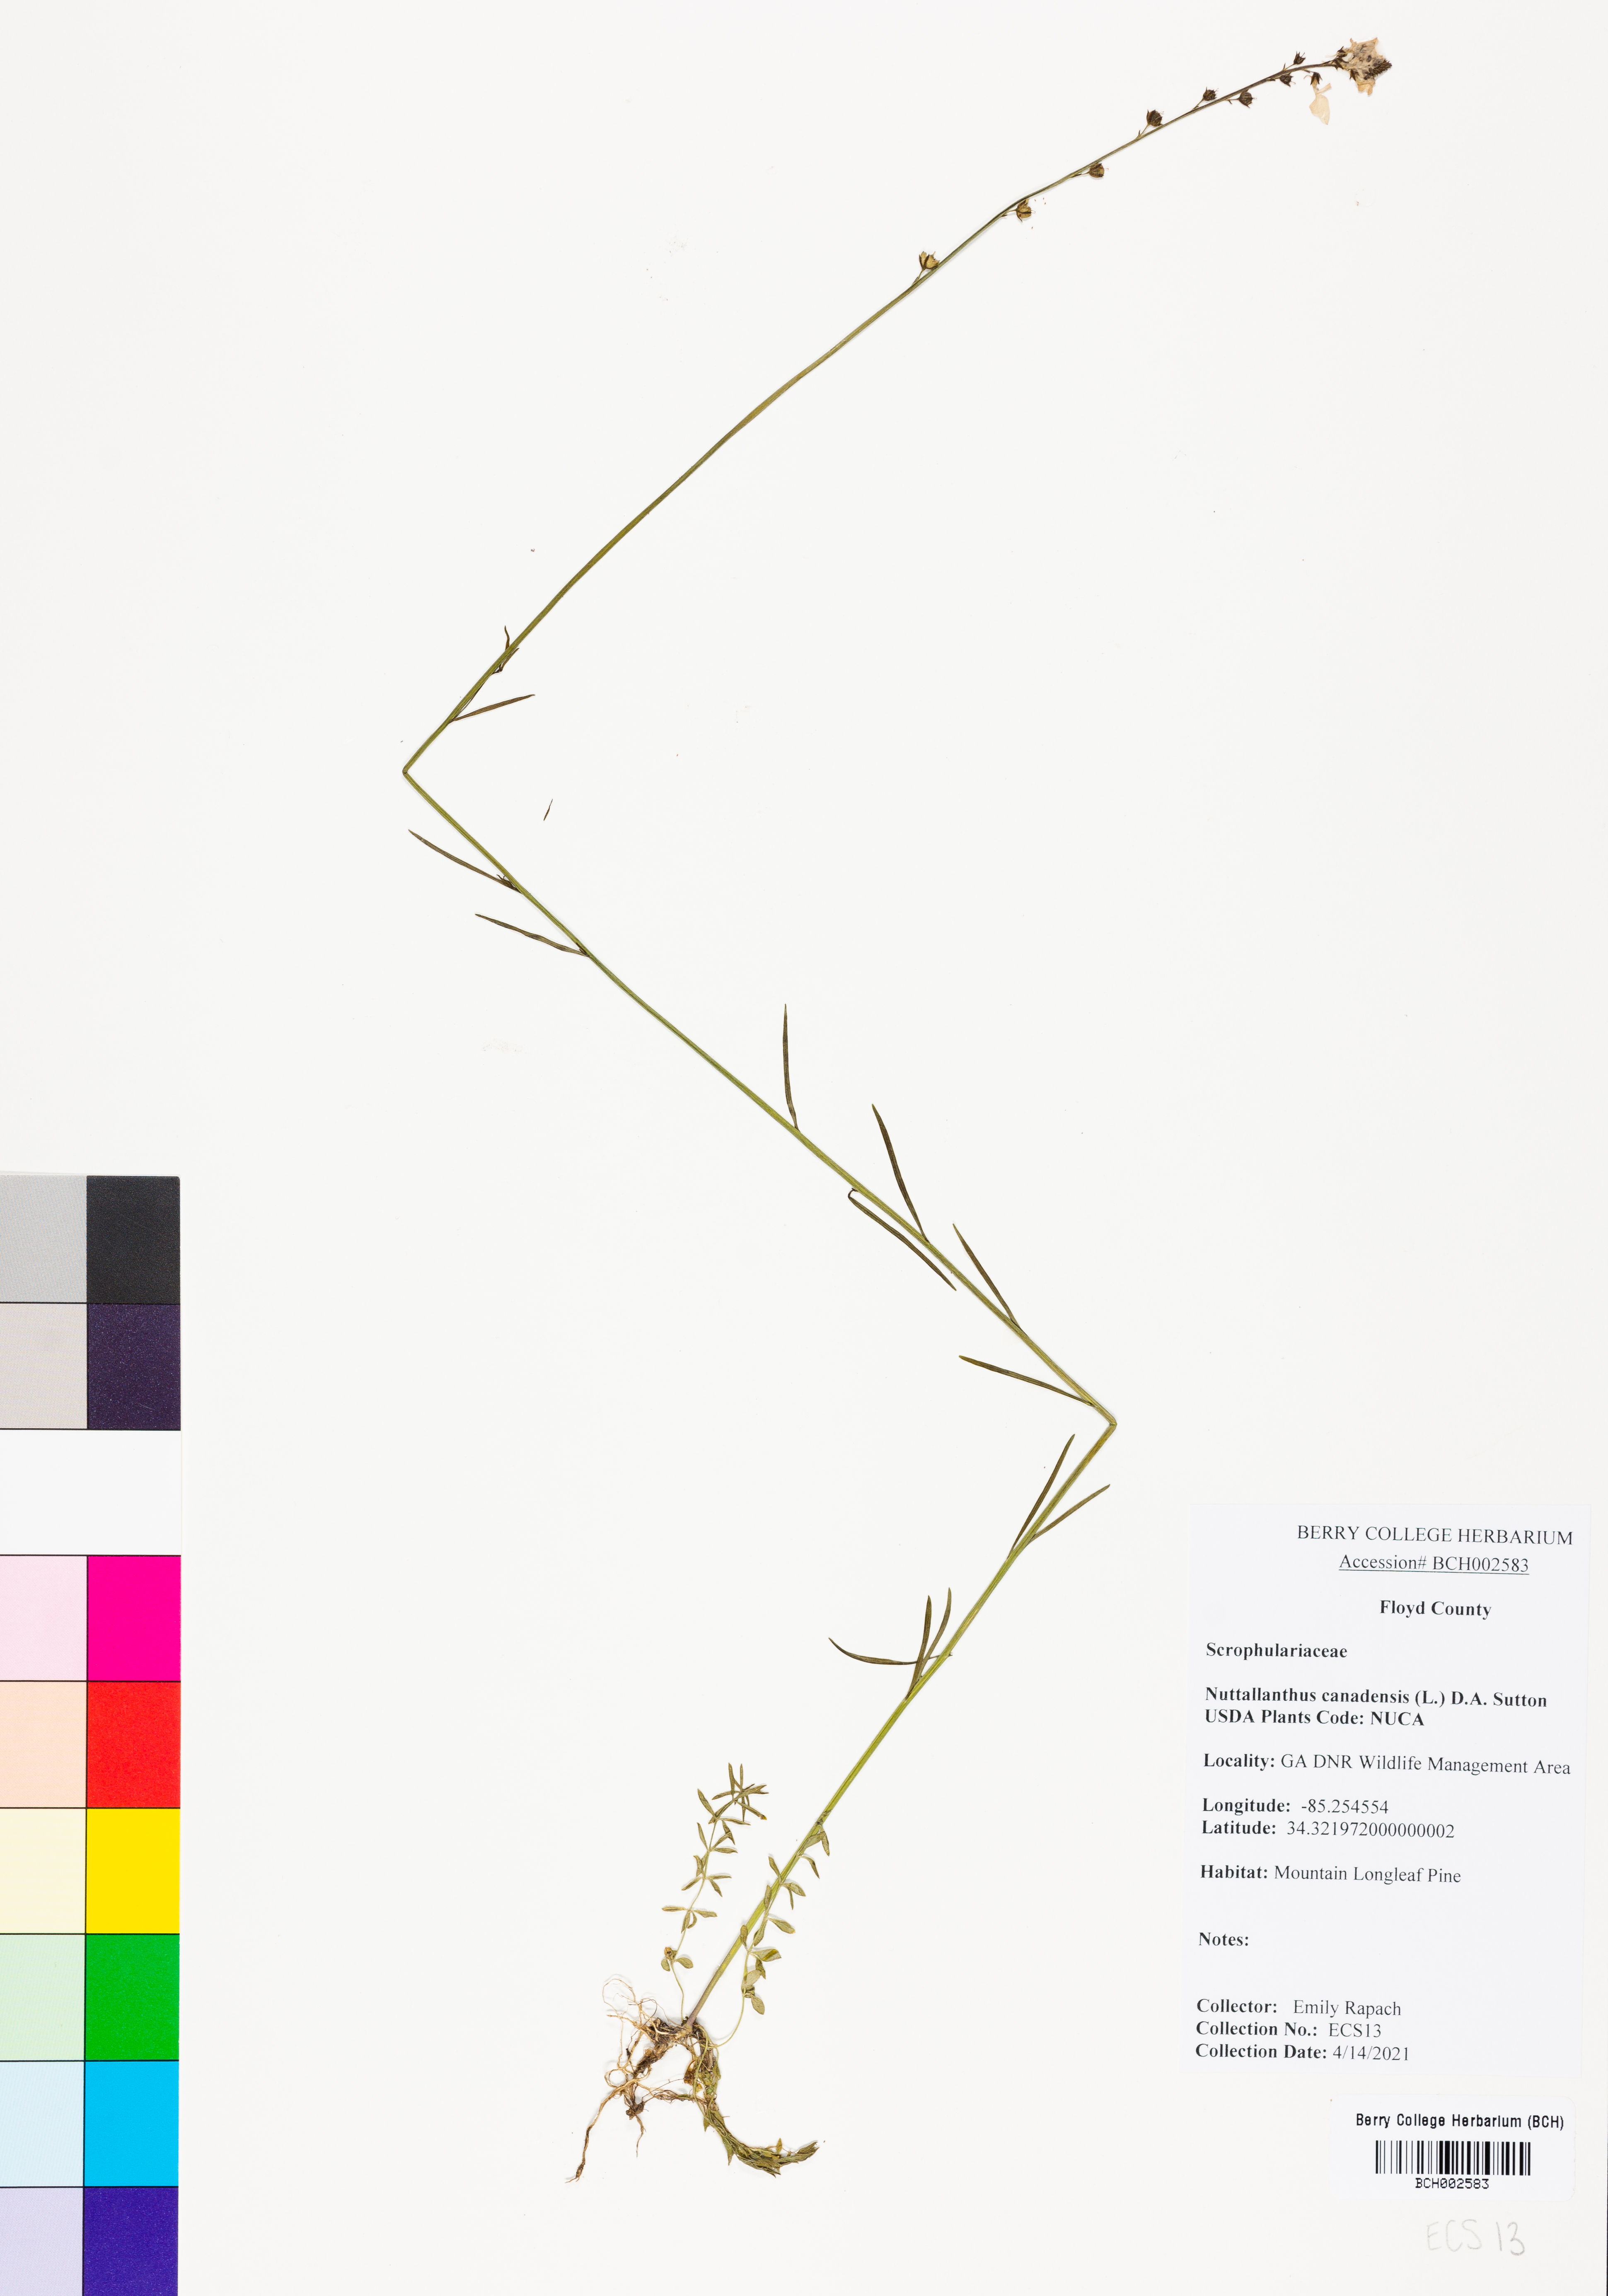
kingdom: Plantae
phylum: Tracheophyta
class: Magnoliopsida
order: Lamiales
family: Plantaginaceae
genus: Nuttallanthus
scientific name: Nuttallanthus canadensis
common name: Blue toadflax
